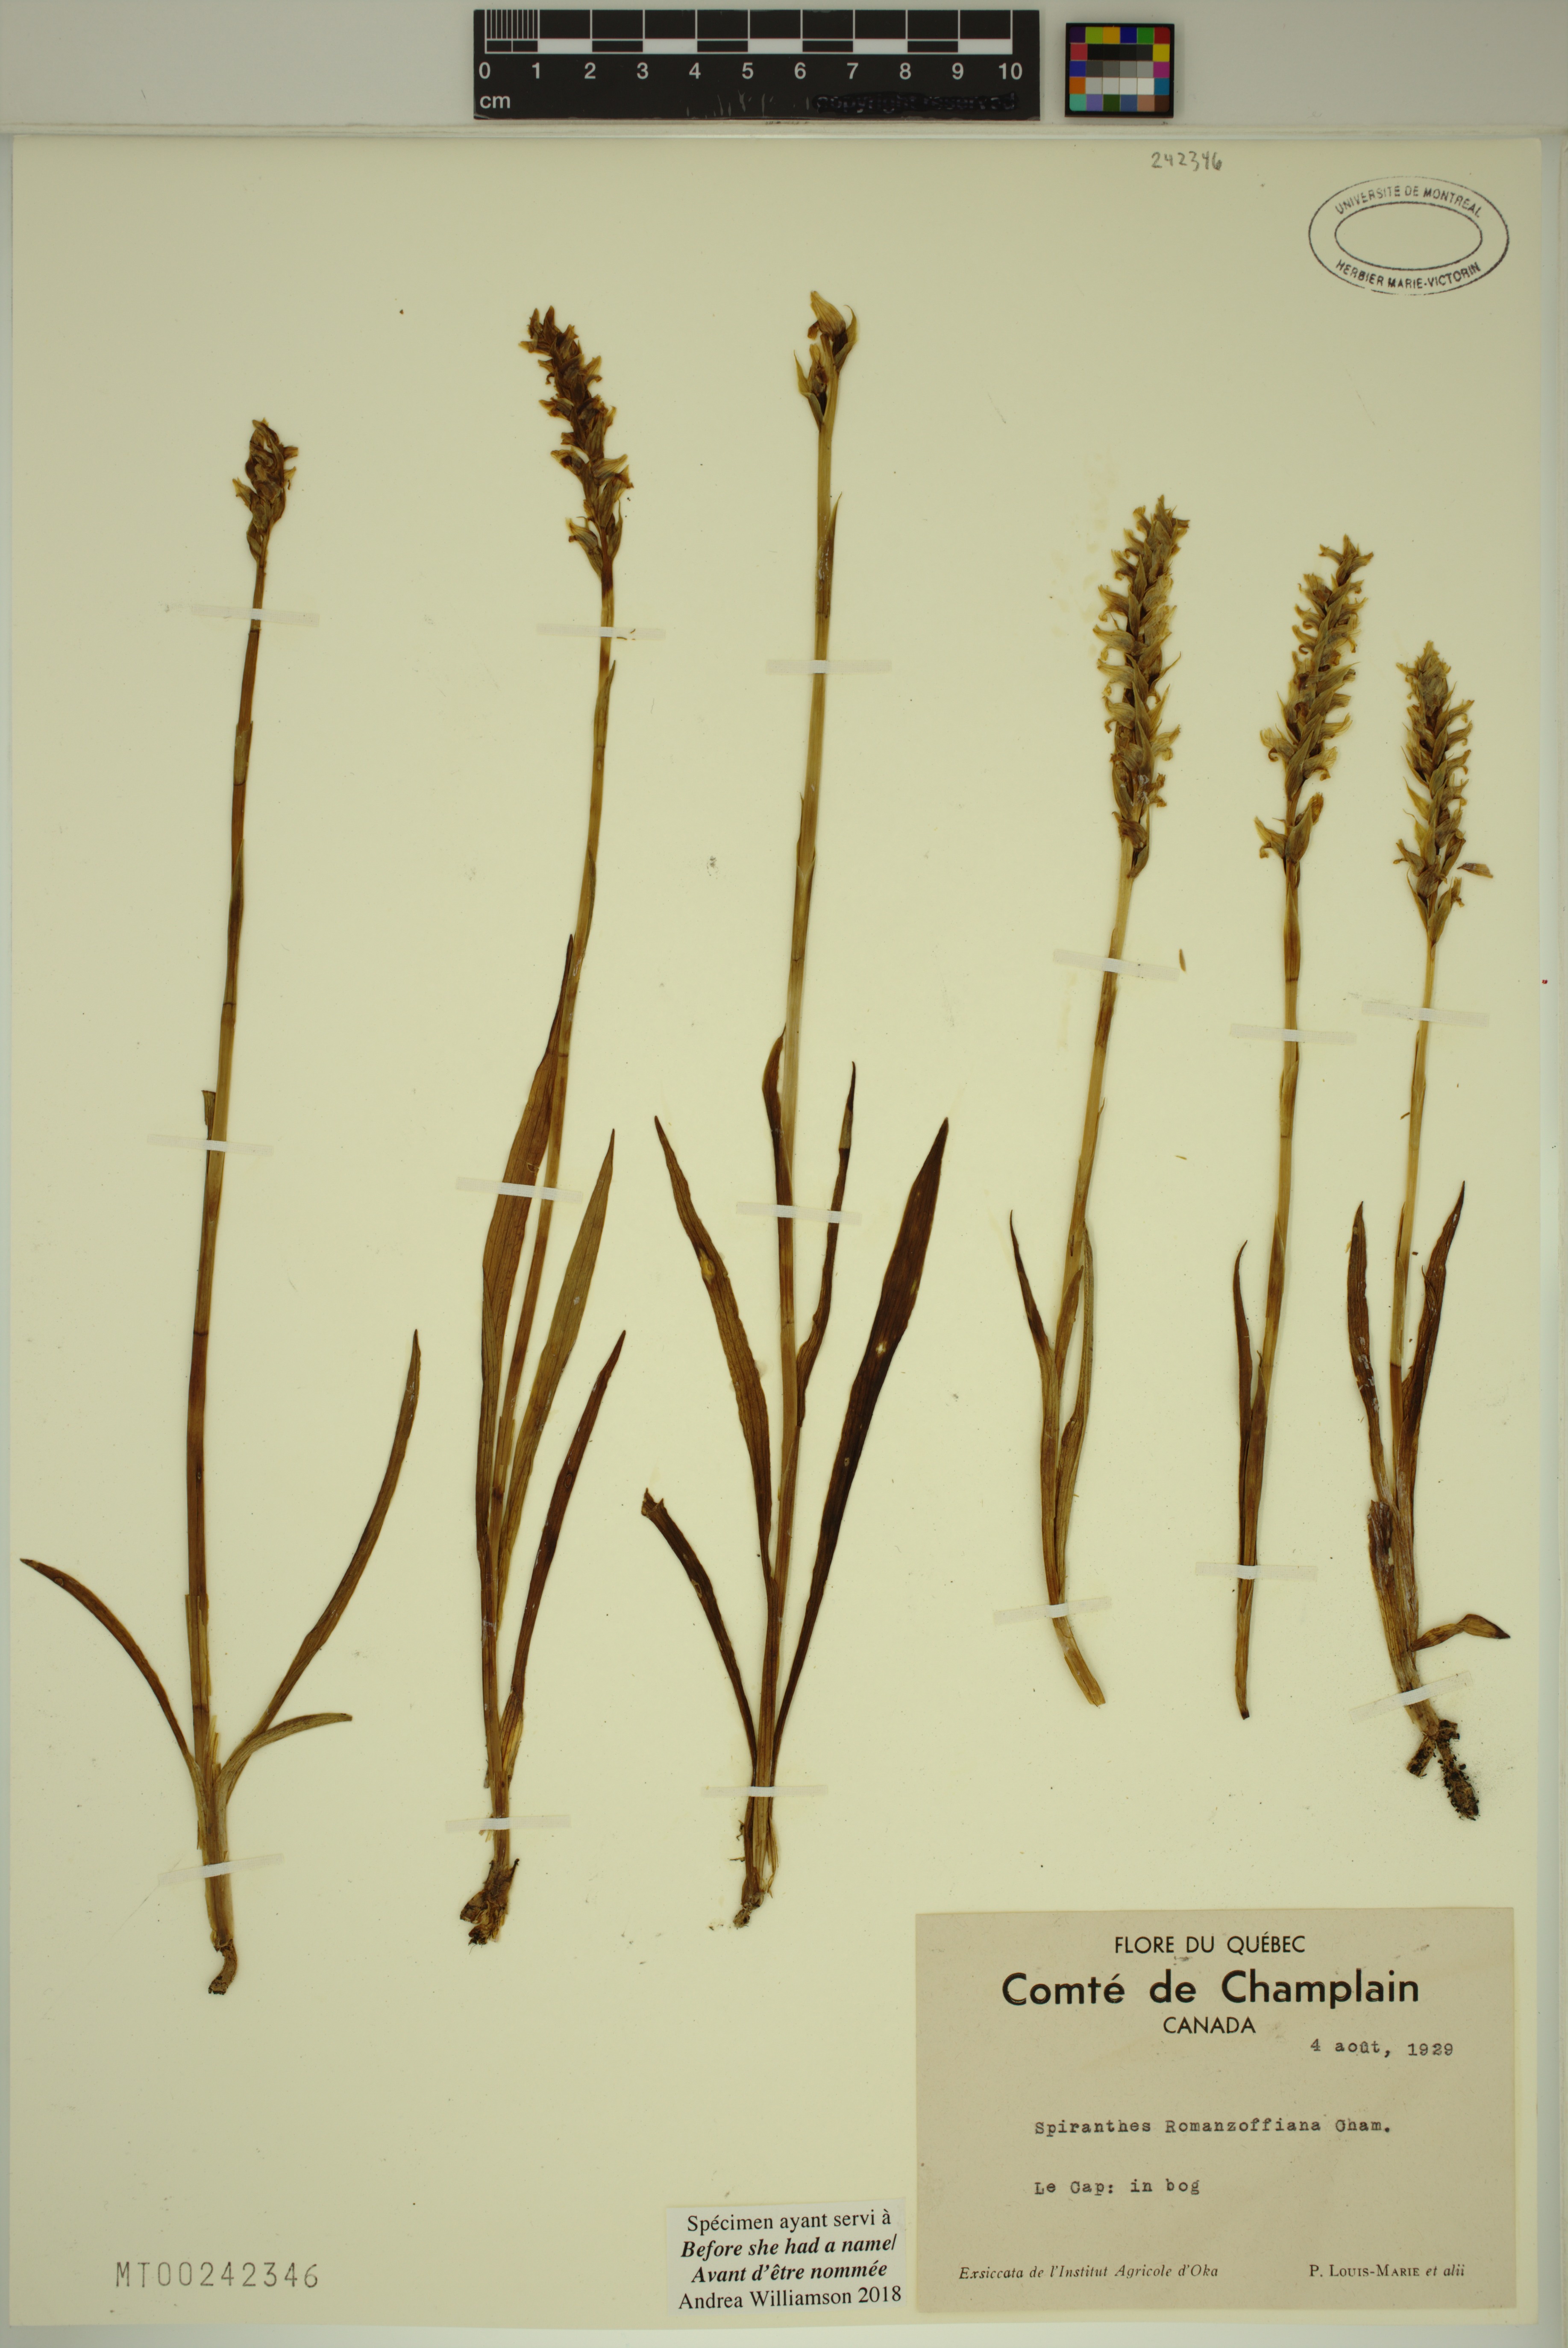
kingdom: Plantae
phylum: Tracheophyta
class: Liliopsida
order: Asparagales
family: Orchidaceae
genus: Spiranthes
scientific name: Spiranthes romanzoffiana
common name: Irish lady's-tresses
